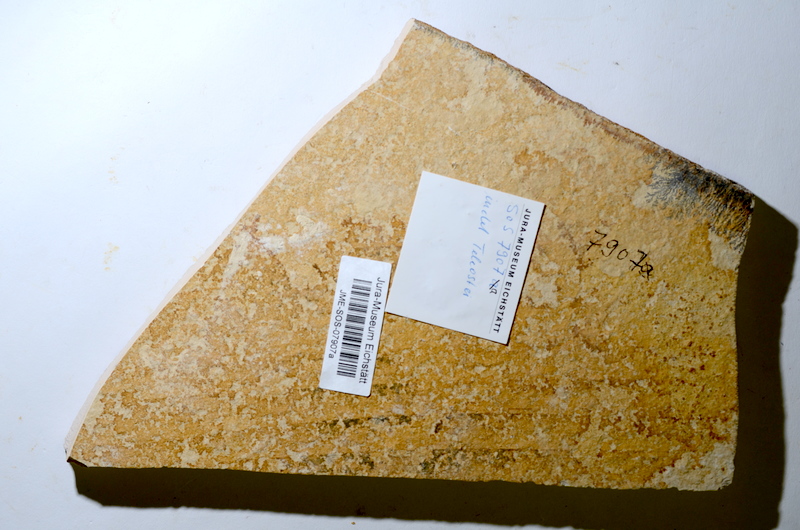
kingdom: Animalia
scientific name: Animalia
